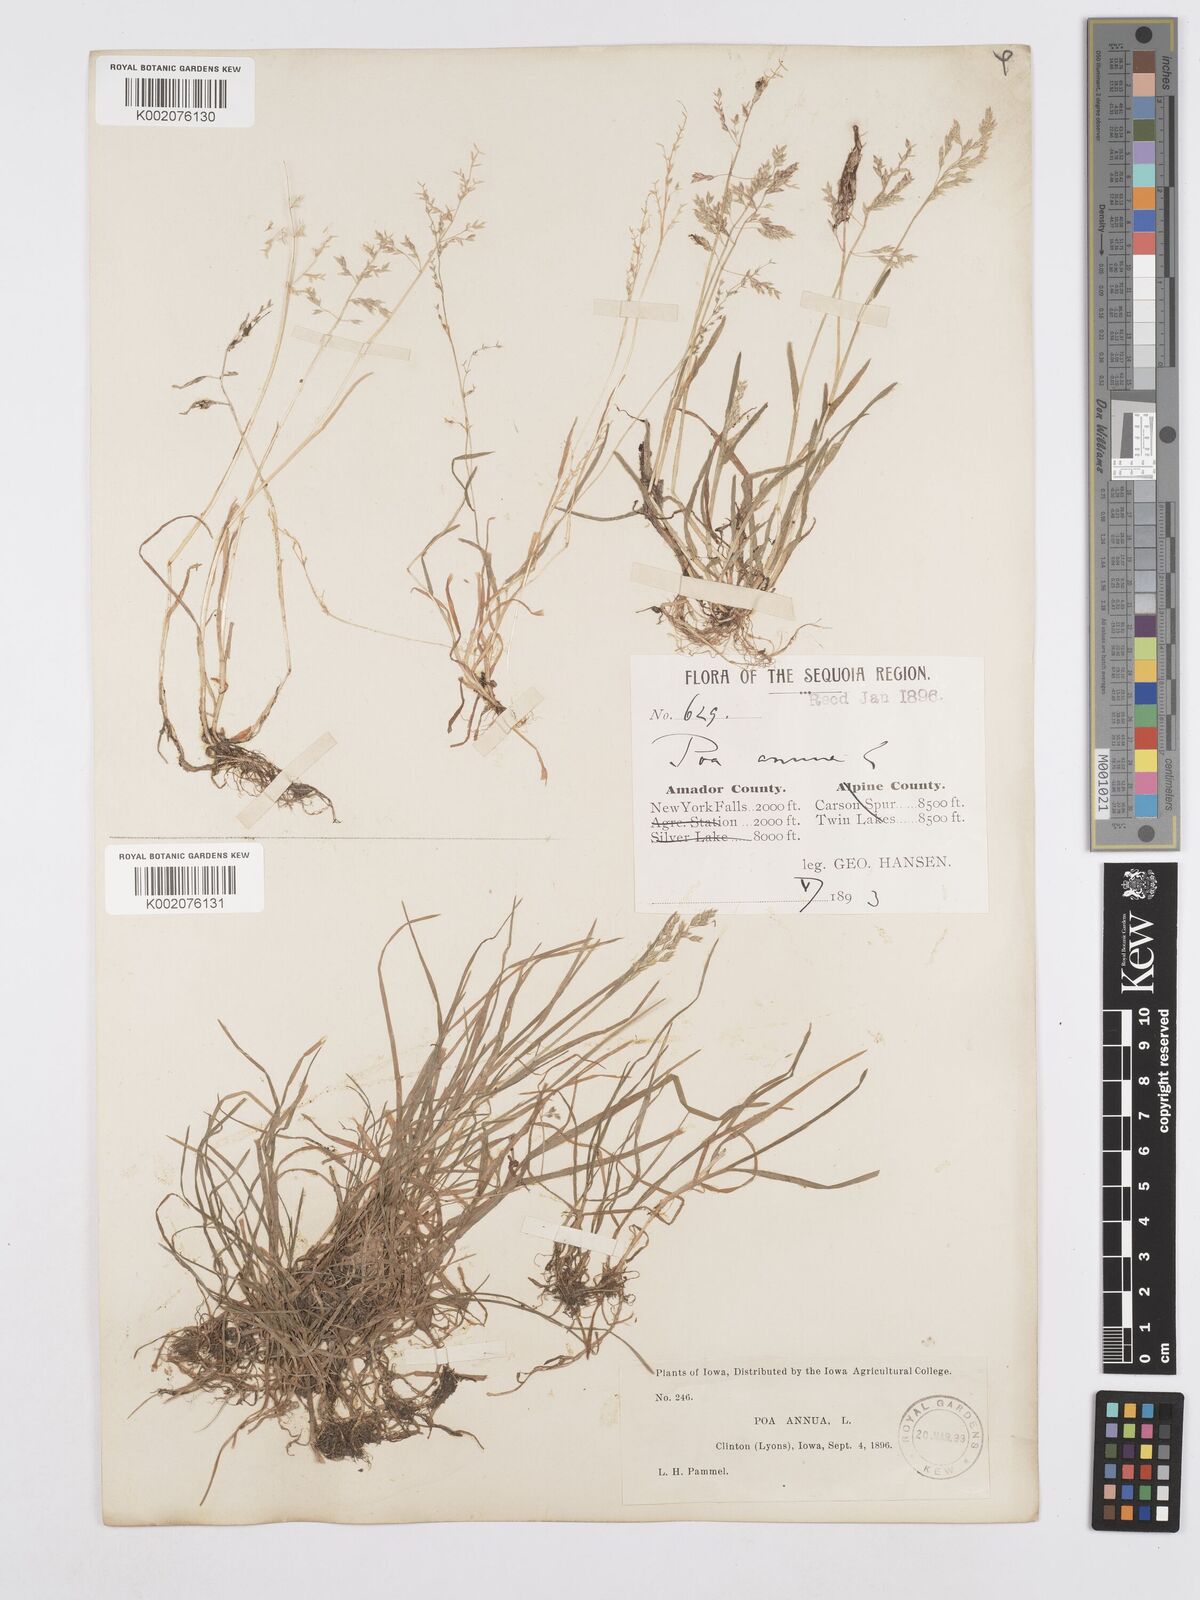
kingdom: Plantae
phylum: Tracheophyta
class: Liliopsida
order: Poales
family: Poaceae
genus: Poa
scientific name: Poa annua
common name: Annual bluegrass
